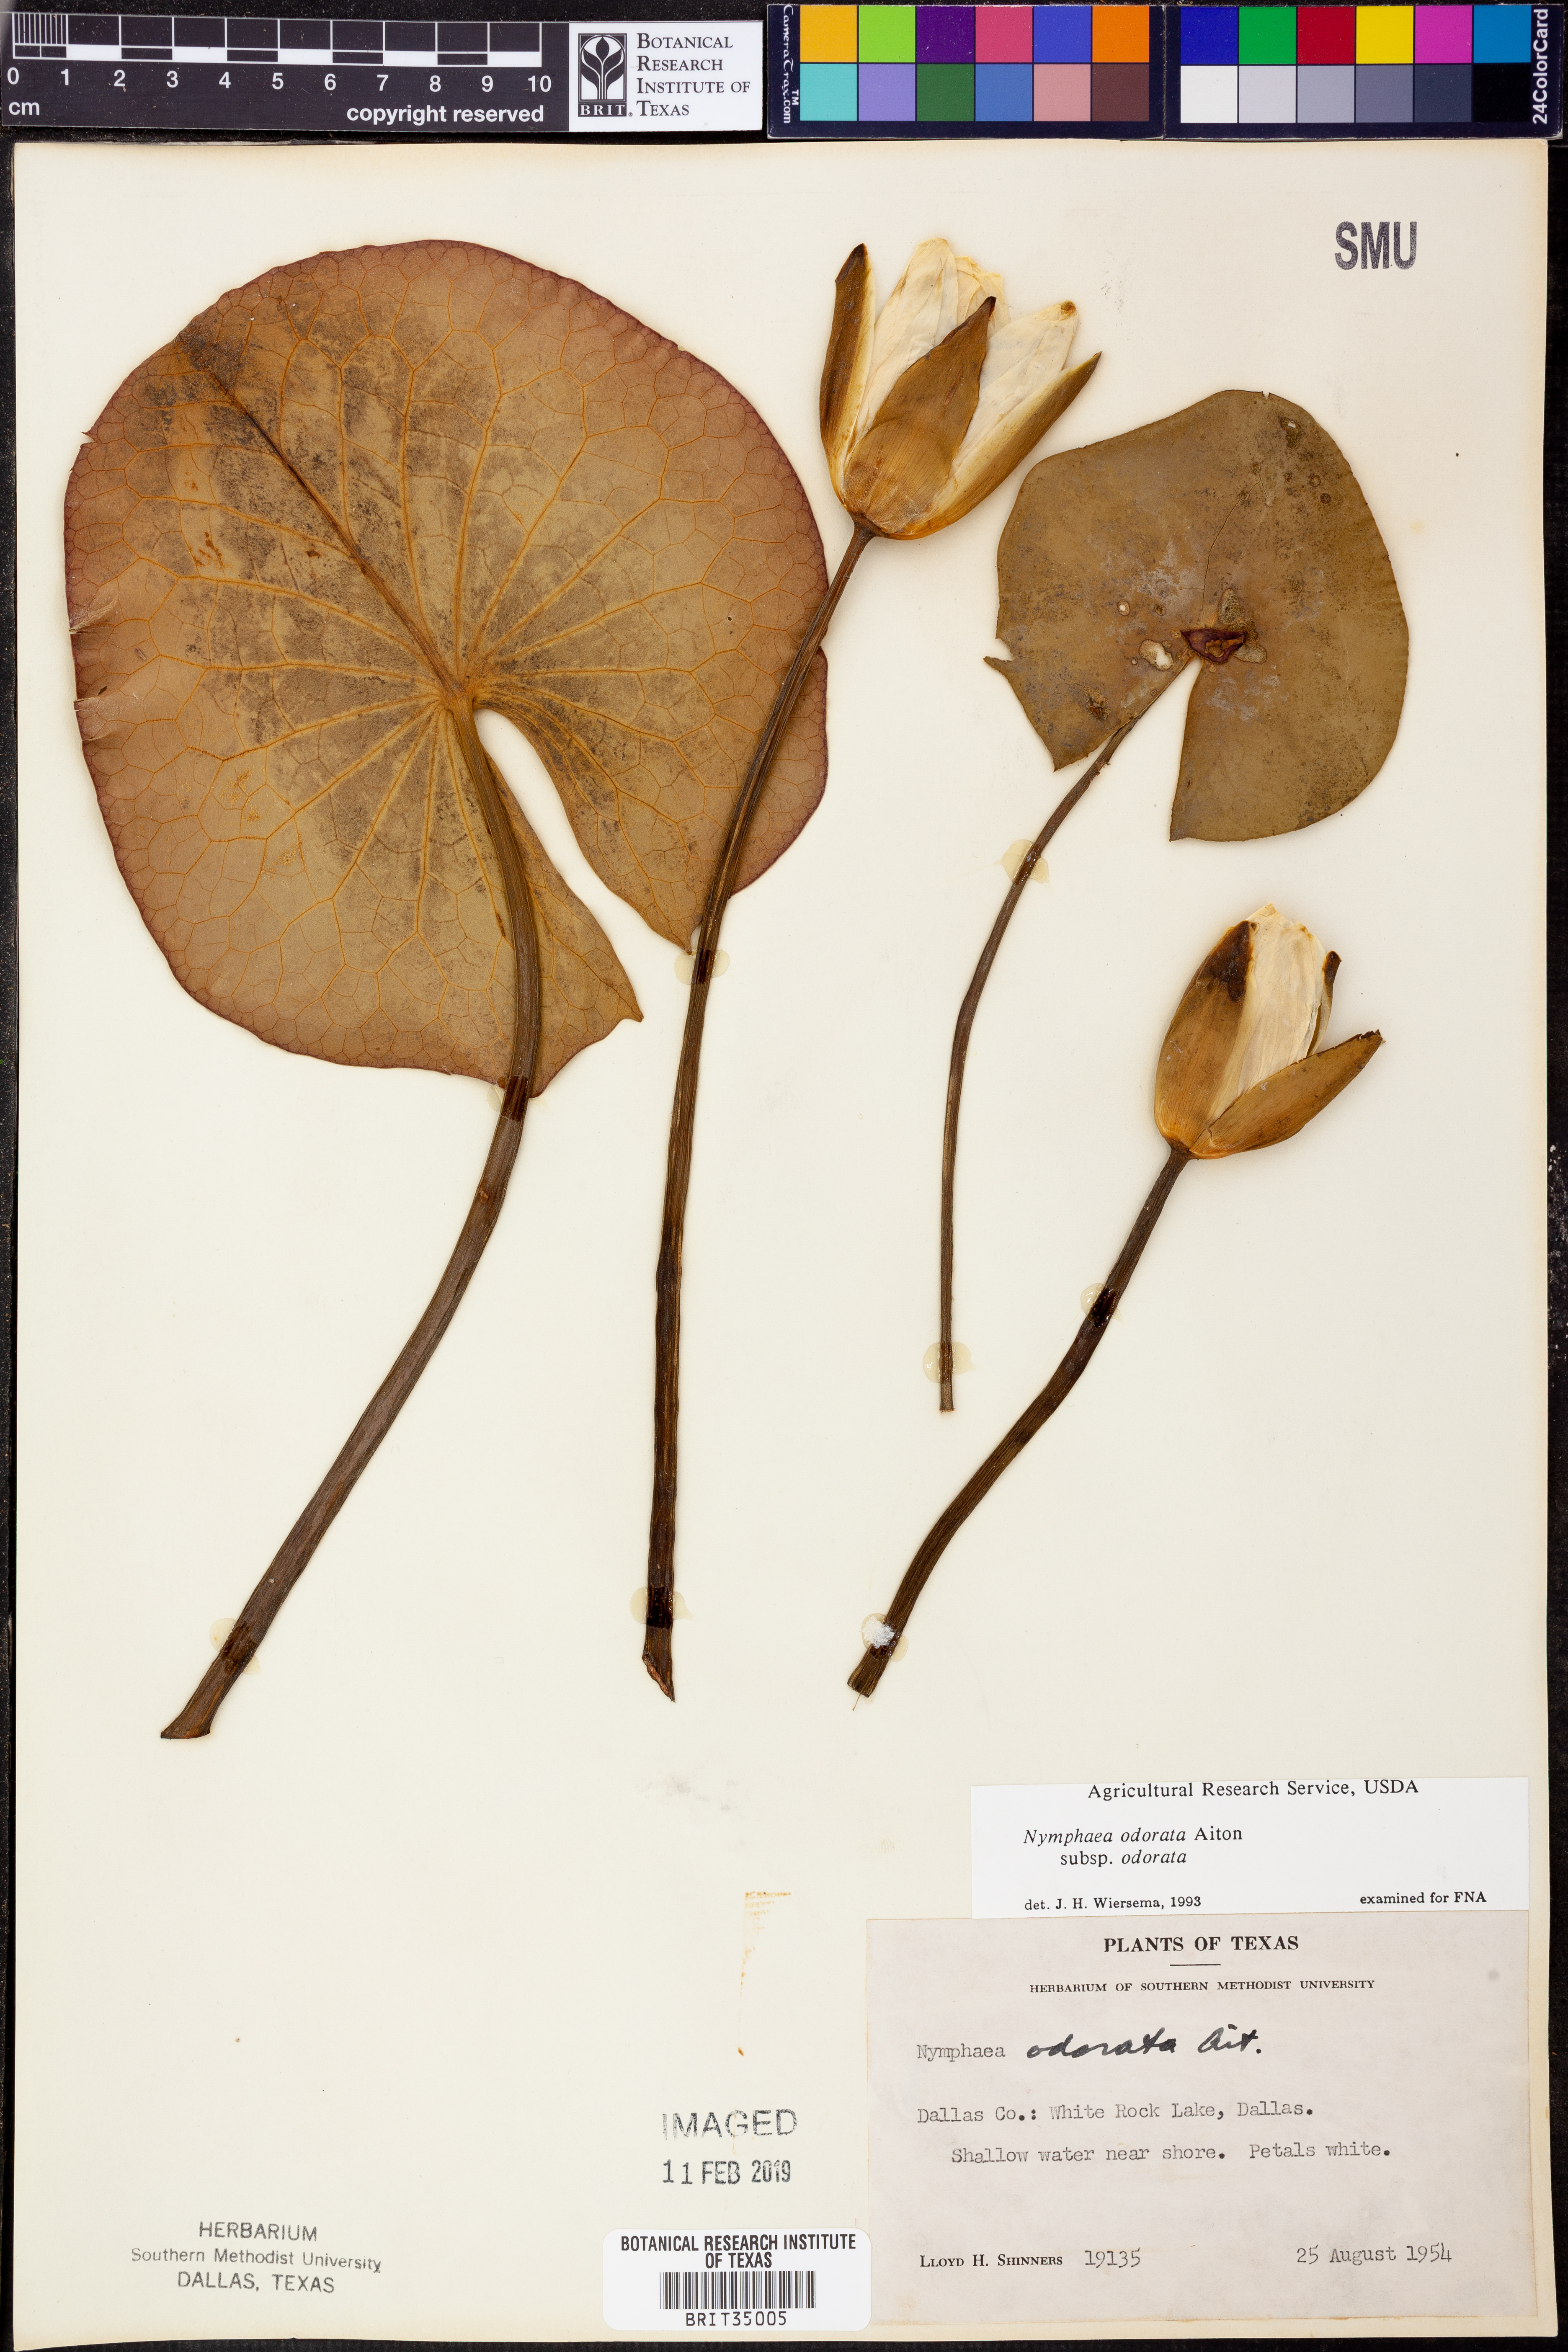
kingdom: Plantae
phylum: Tracheophyta
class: Magnoliopsida
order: Nymphaeales
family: Nymphaeaceae
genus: Nymphaea
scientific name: Nymphaea odorata
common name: Fragrant water-lily
